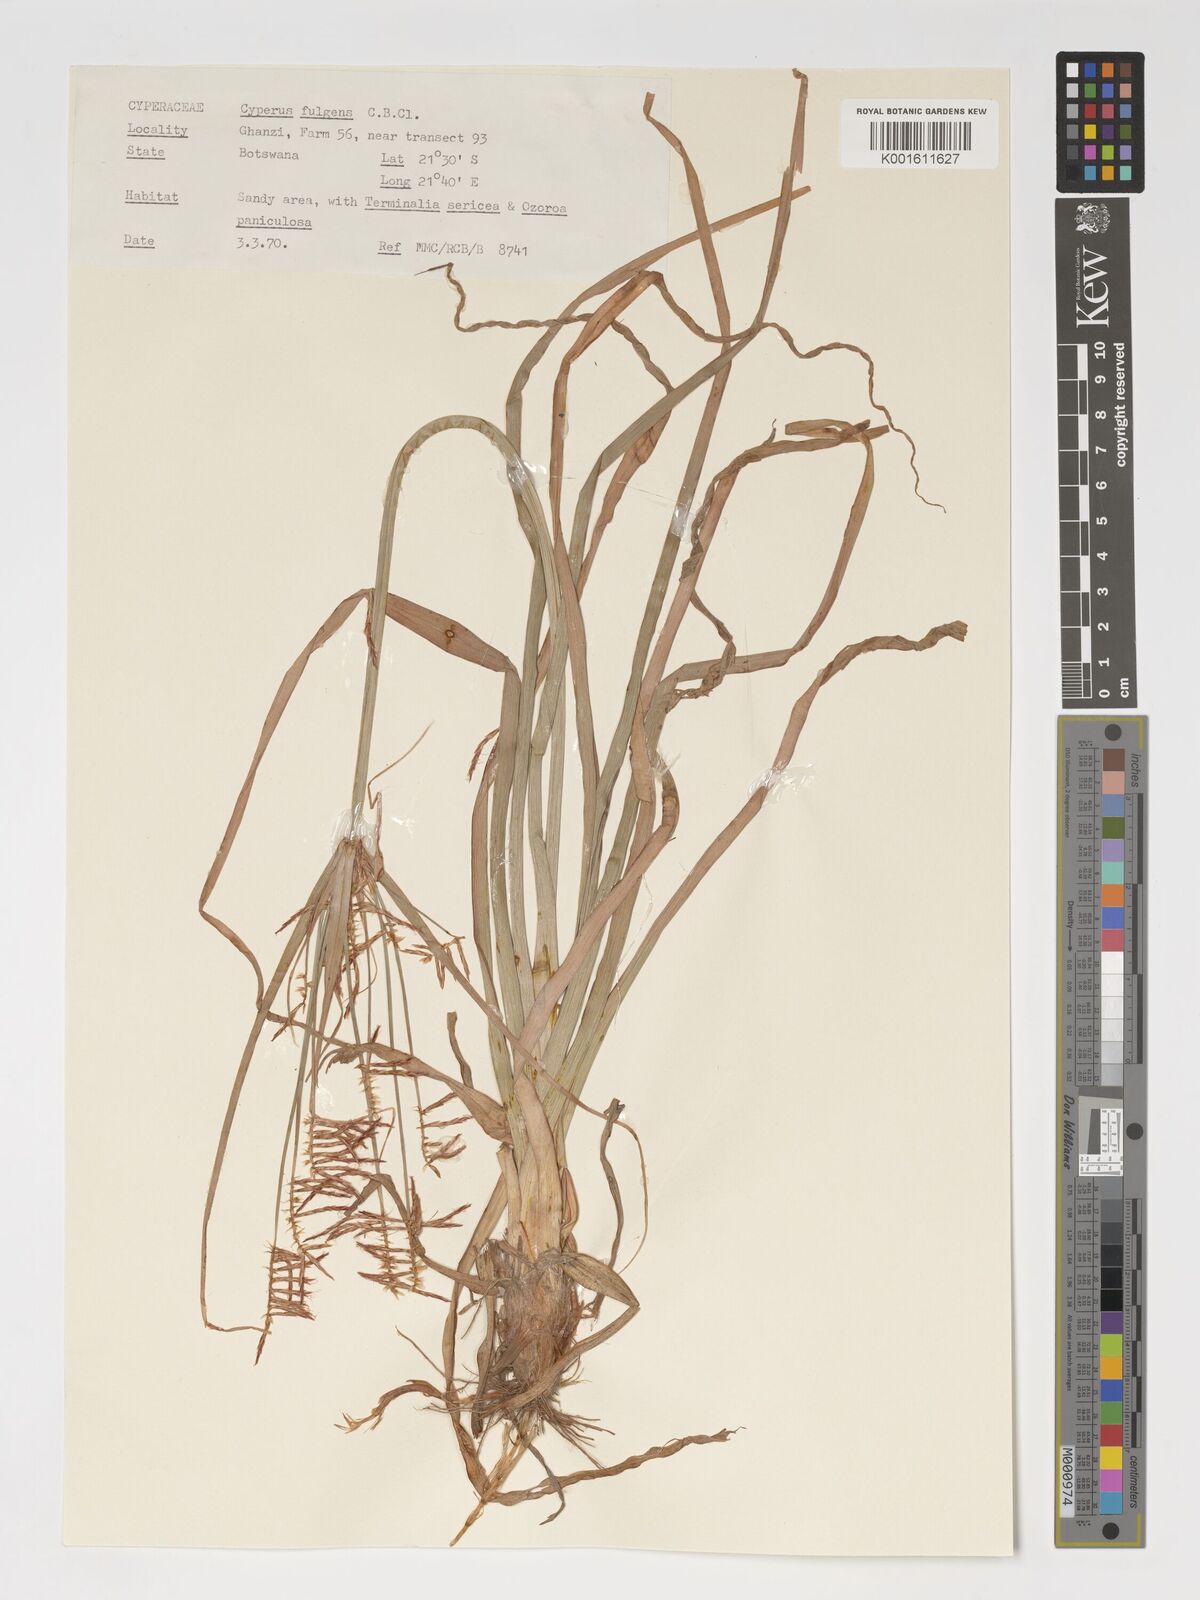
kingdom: Plantae
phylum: Tracheophyta
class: Liliopsida
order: Poales
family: Cyperaceae
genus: Cyperus
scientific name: Cyperus callistus
